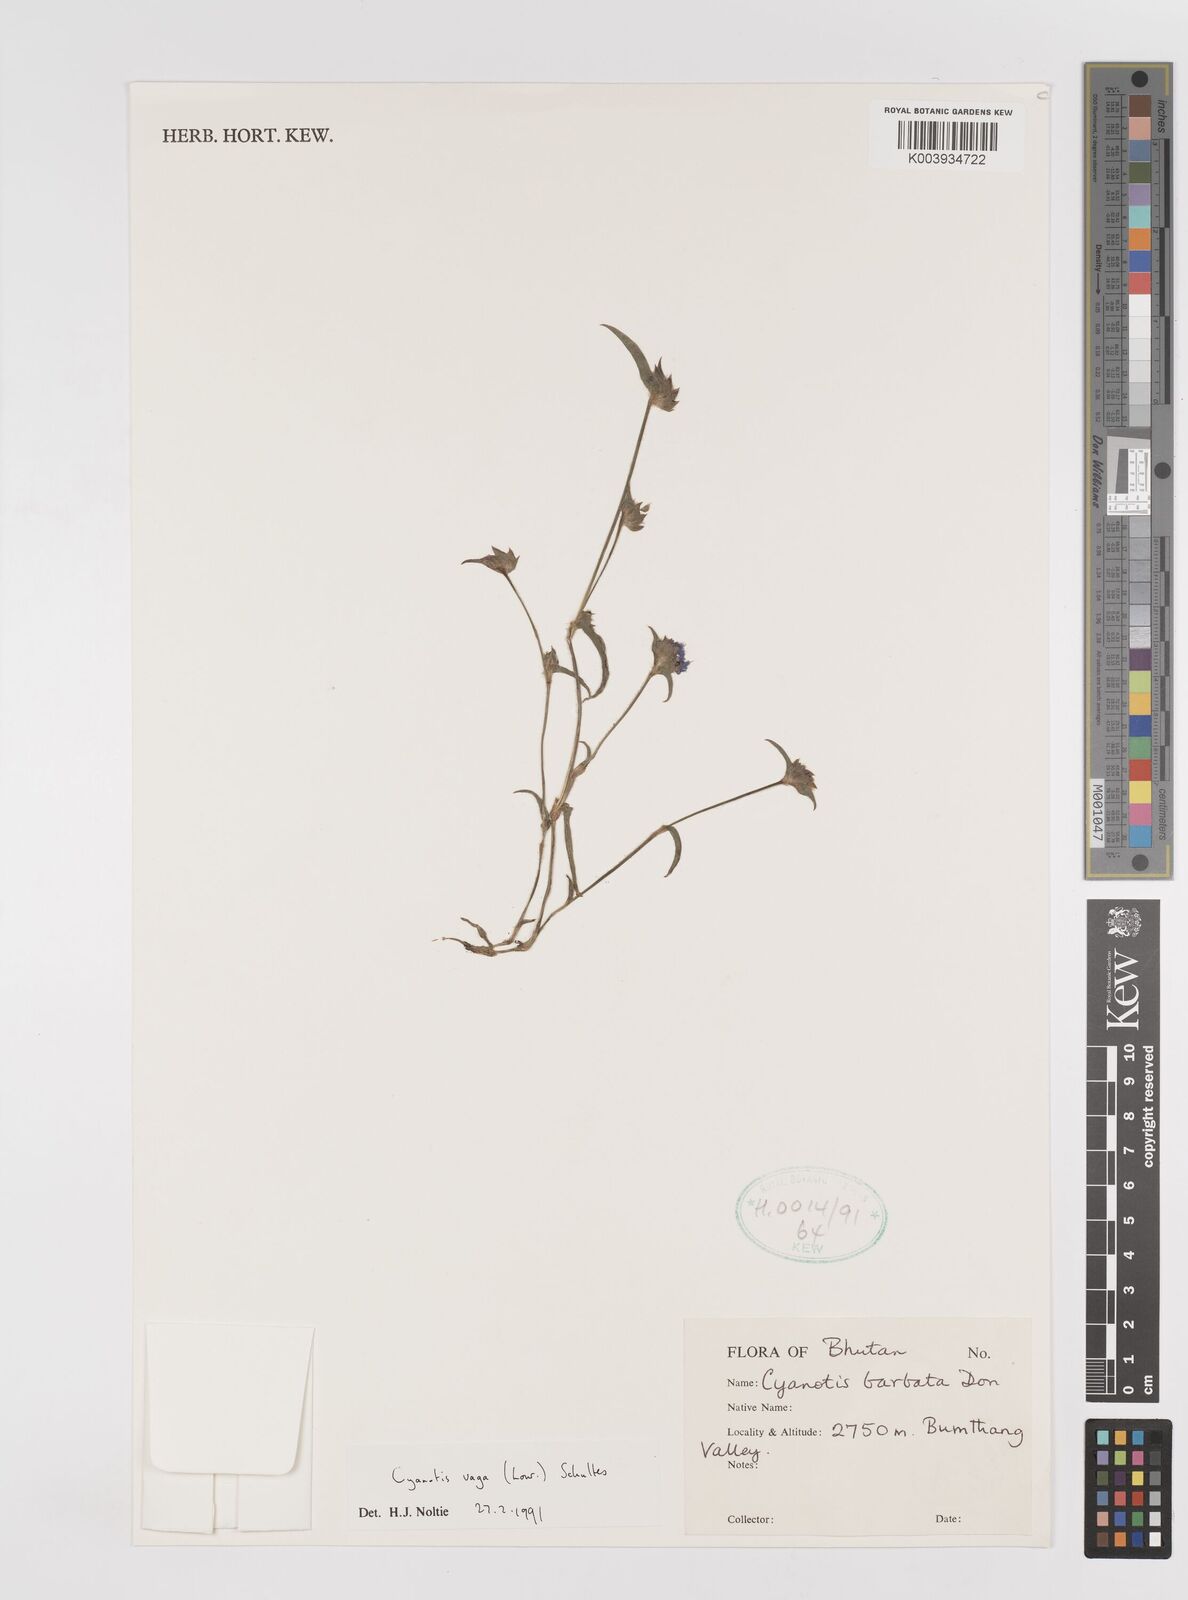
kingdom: Plantae
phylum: Tracheophyta
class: Liliopsida
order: Commelinales
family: Commelinaceae
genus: Cyanotis
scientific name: Cyanotis vaga
